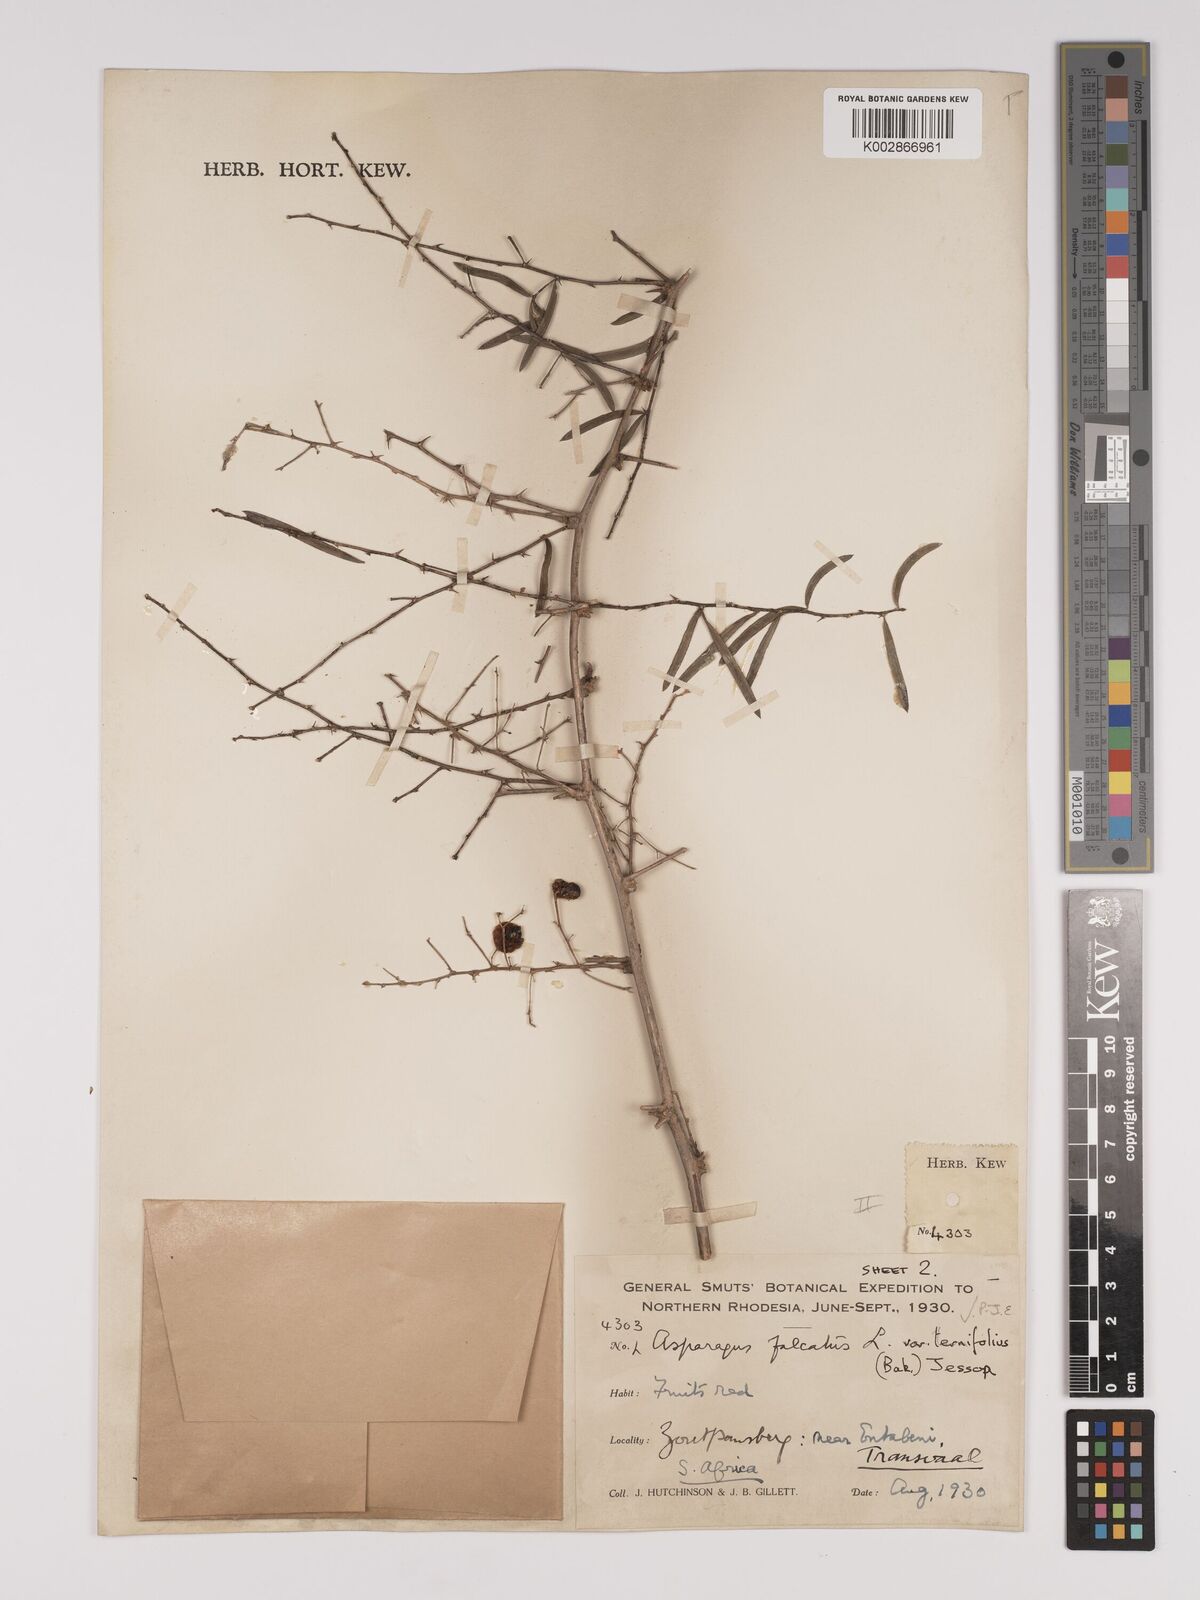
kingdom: Plantae
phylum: Tracheophyta
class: Liliopsida
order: Asparagales
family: Asparagaceae
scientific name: Asparagaceae
